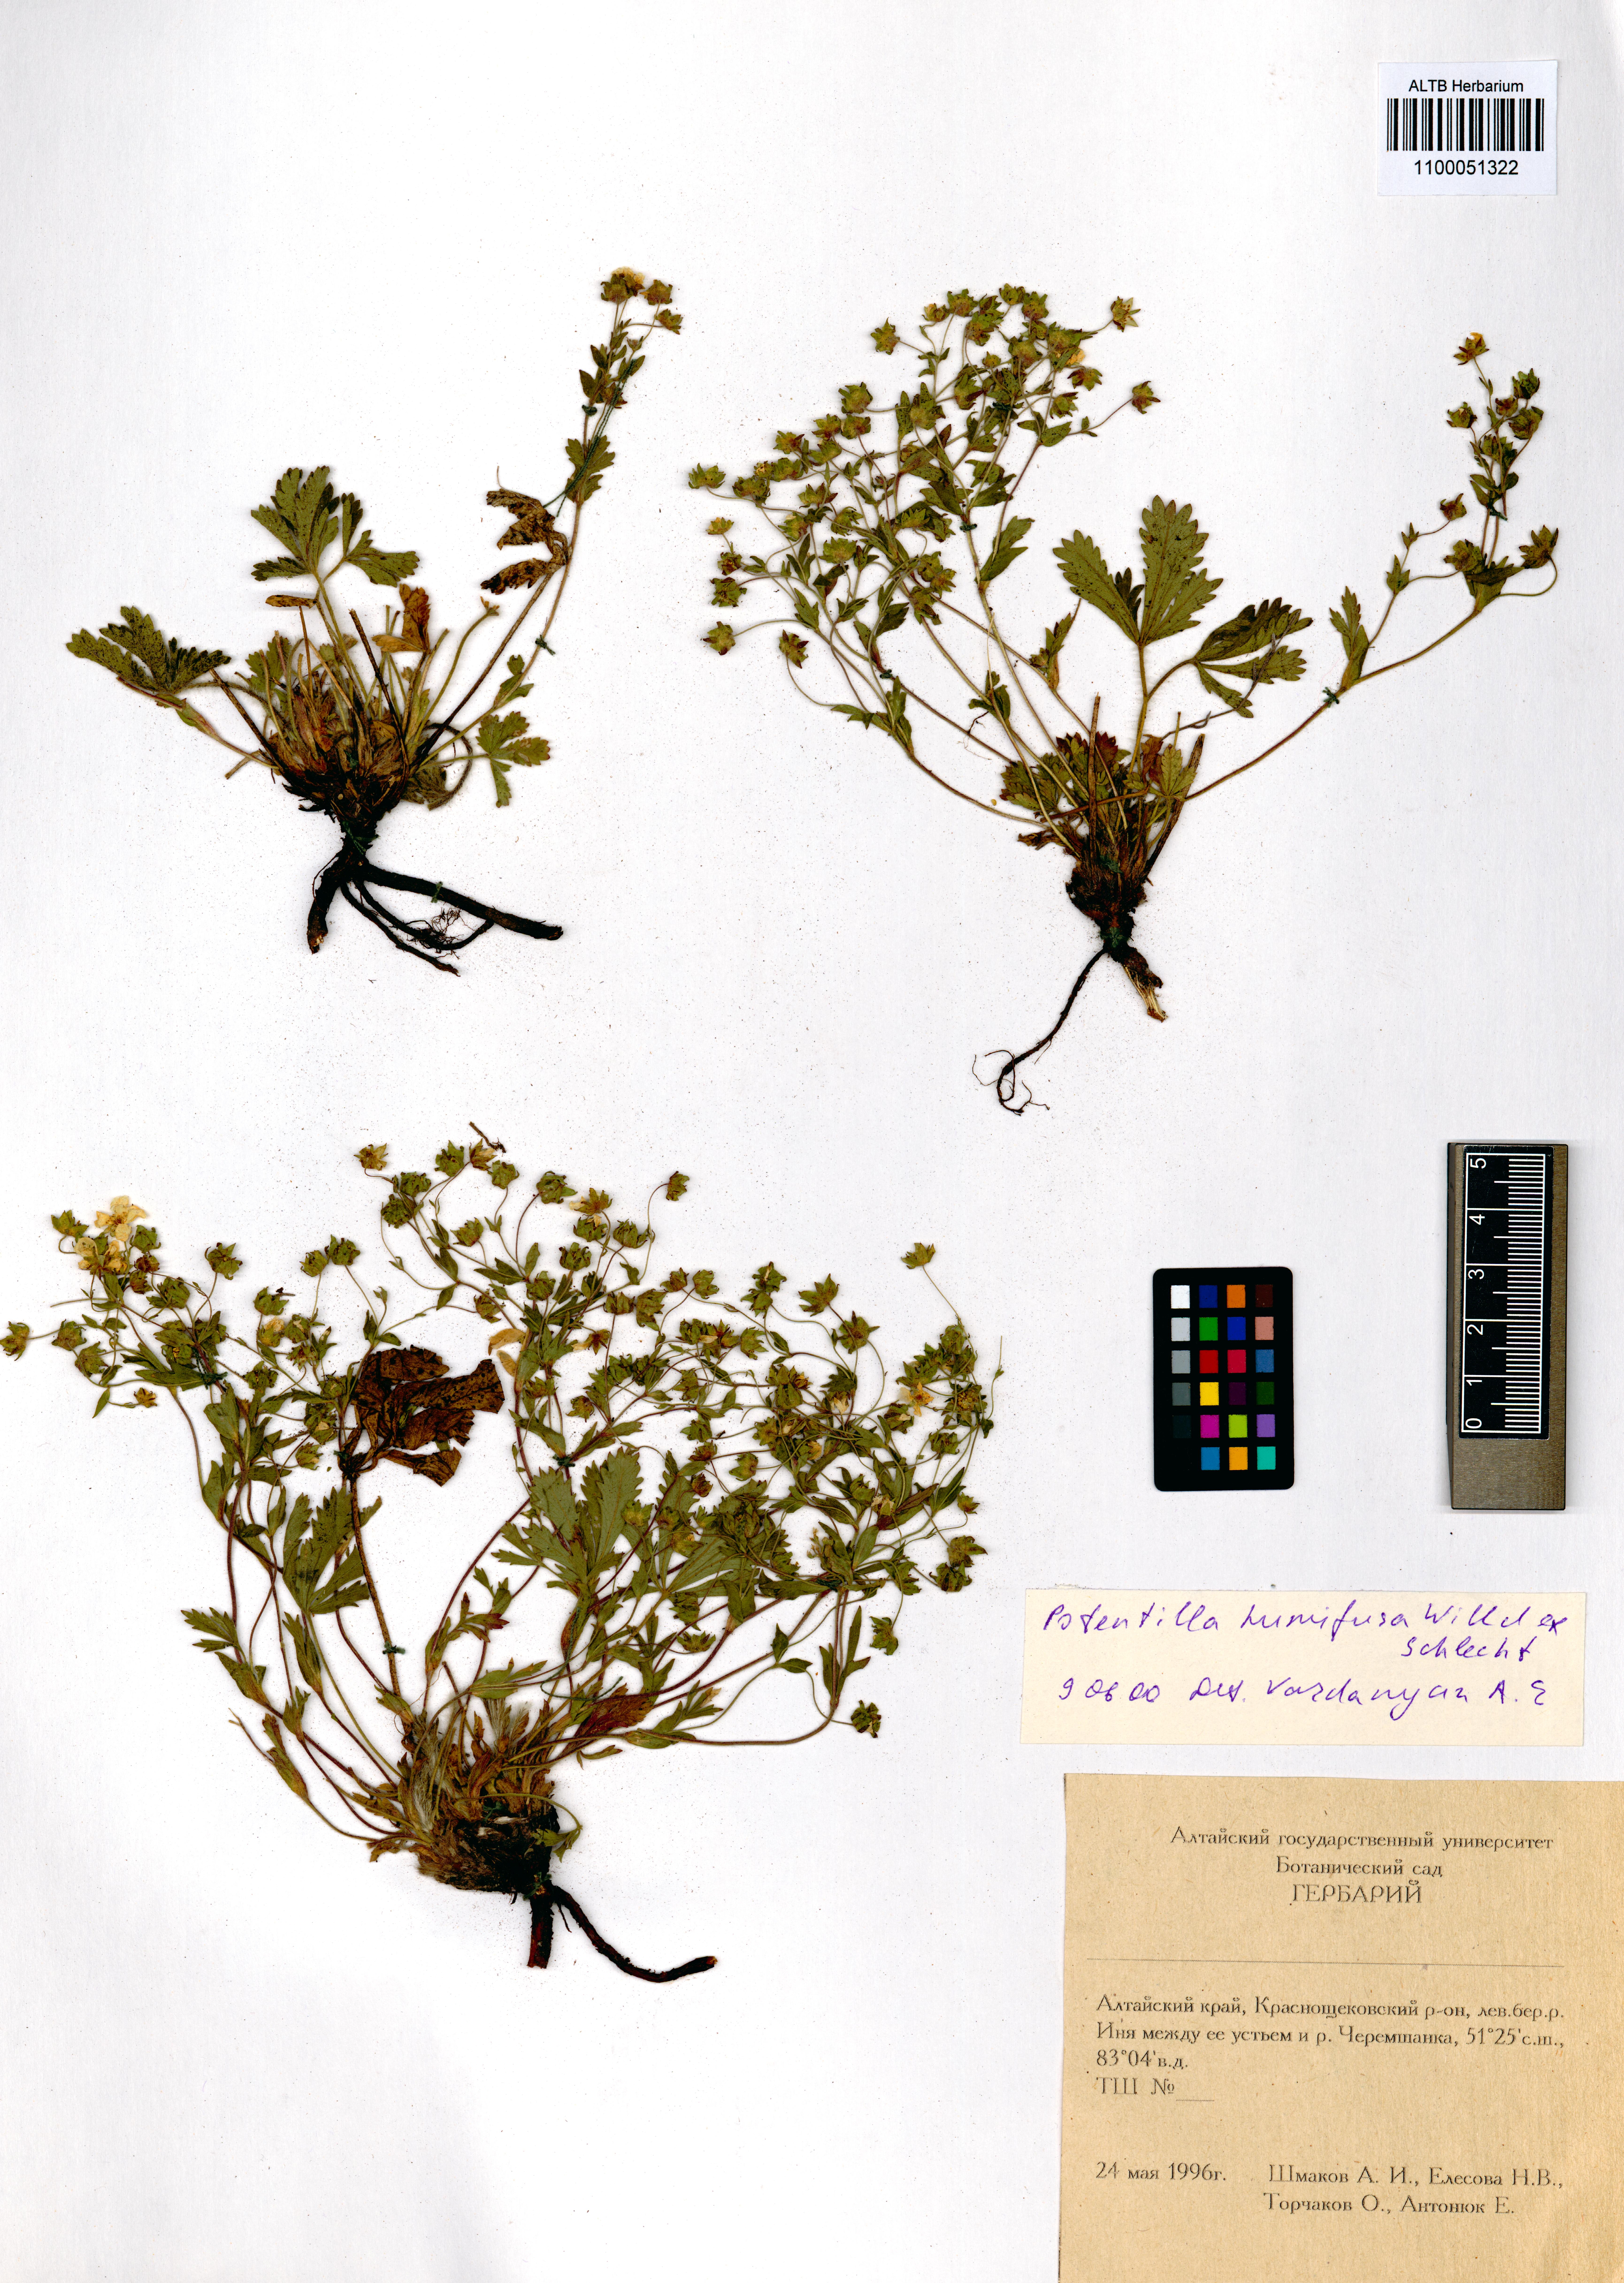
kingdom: Plantae
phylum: Tracheophyta
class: Magnoliopsida
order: Rosales
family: Rosaceae
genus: Potentilla
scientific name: Potentilla humifusa
